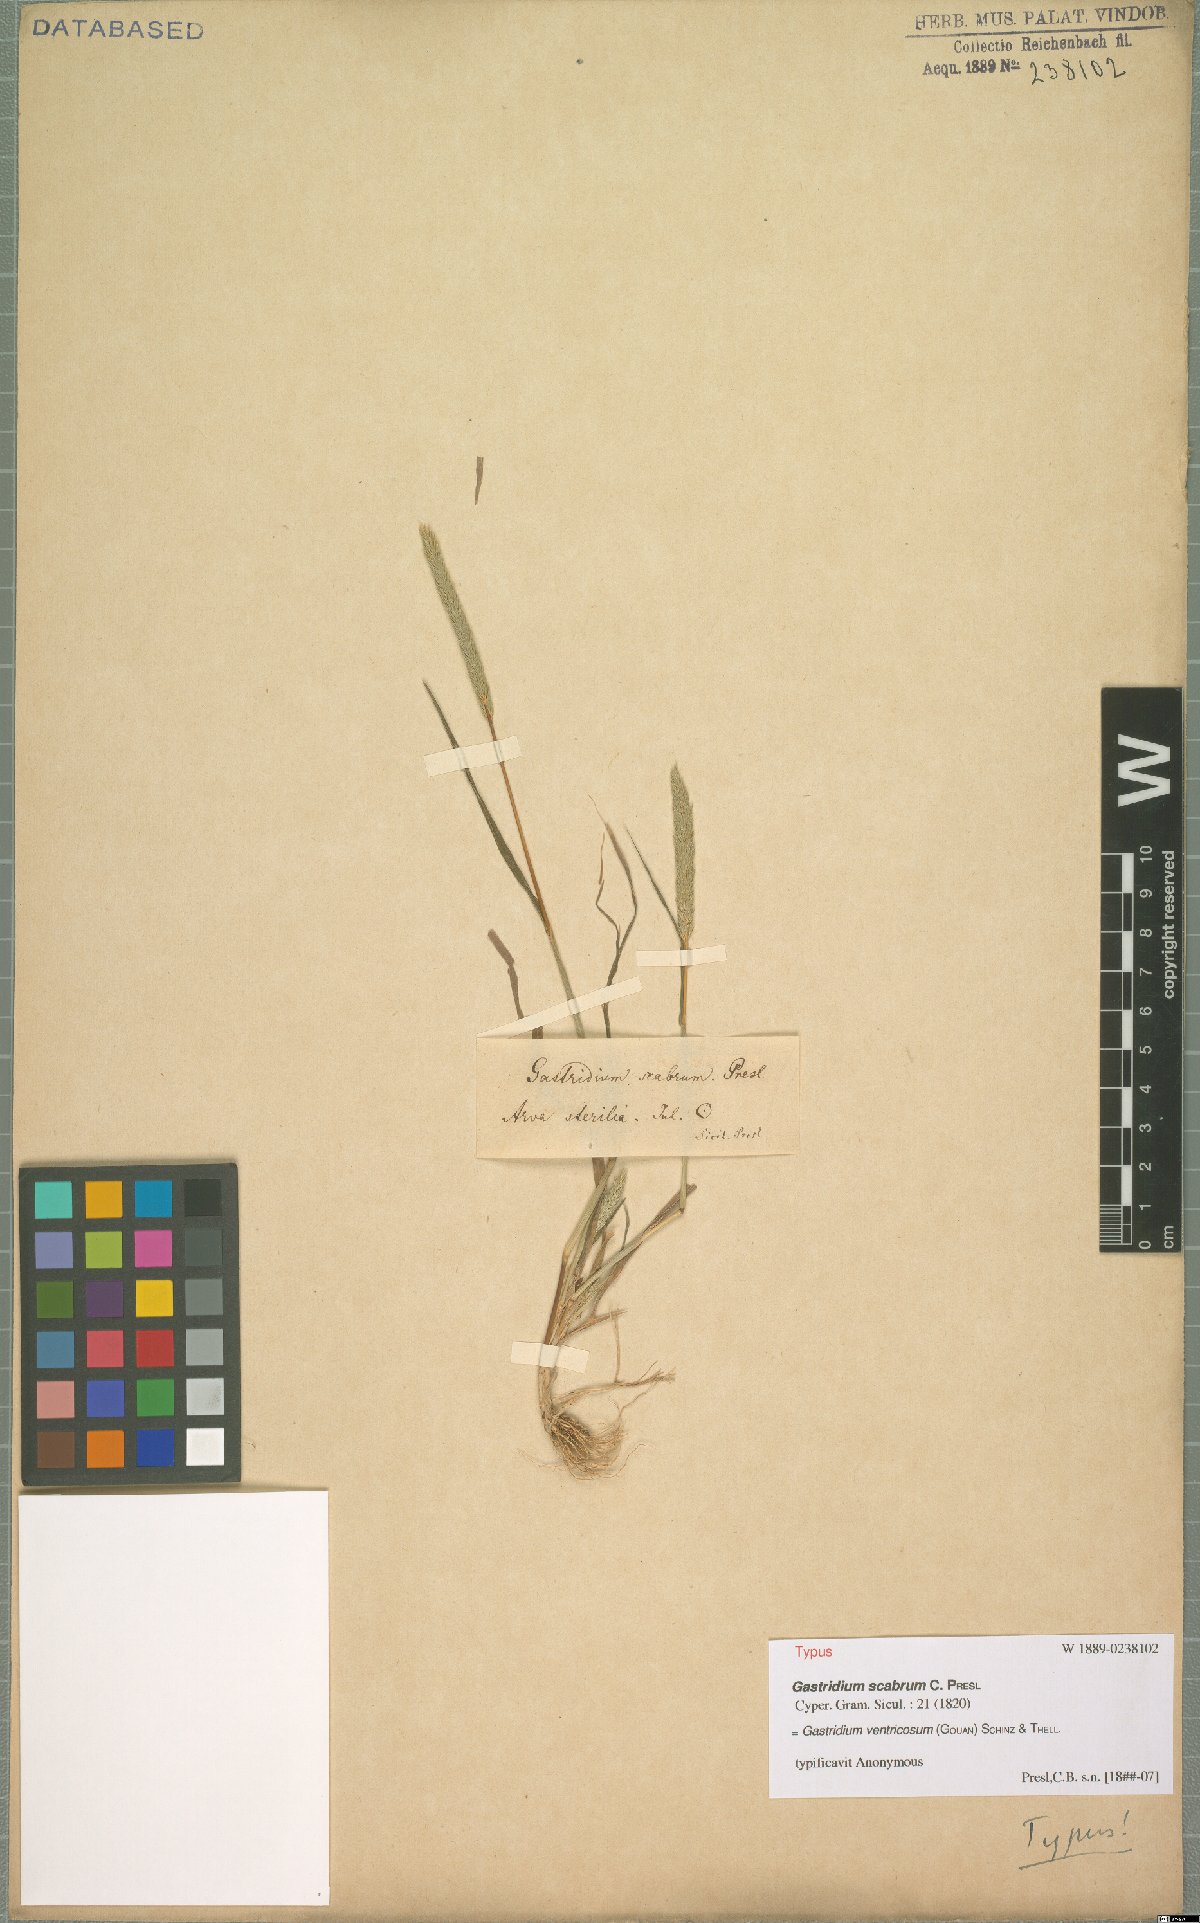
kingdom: Plantae
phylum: Tracheophyta
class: Liliopsida
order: Poales
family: Poaceae
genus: Gastridium
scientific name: Gastridium ventricosum
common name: Nit-grass
